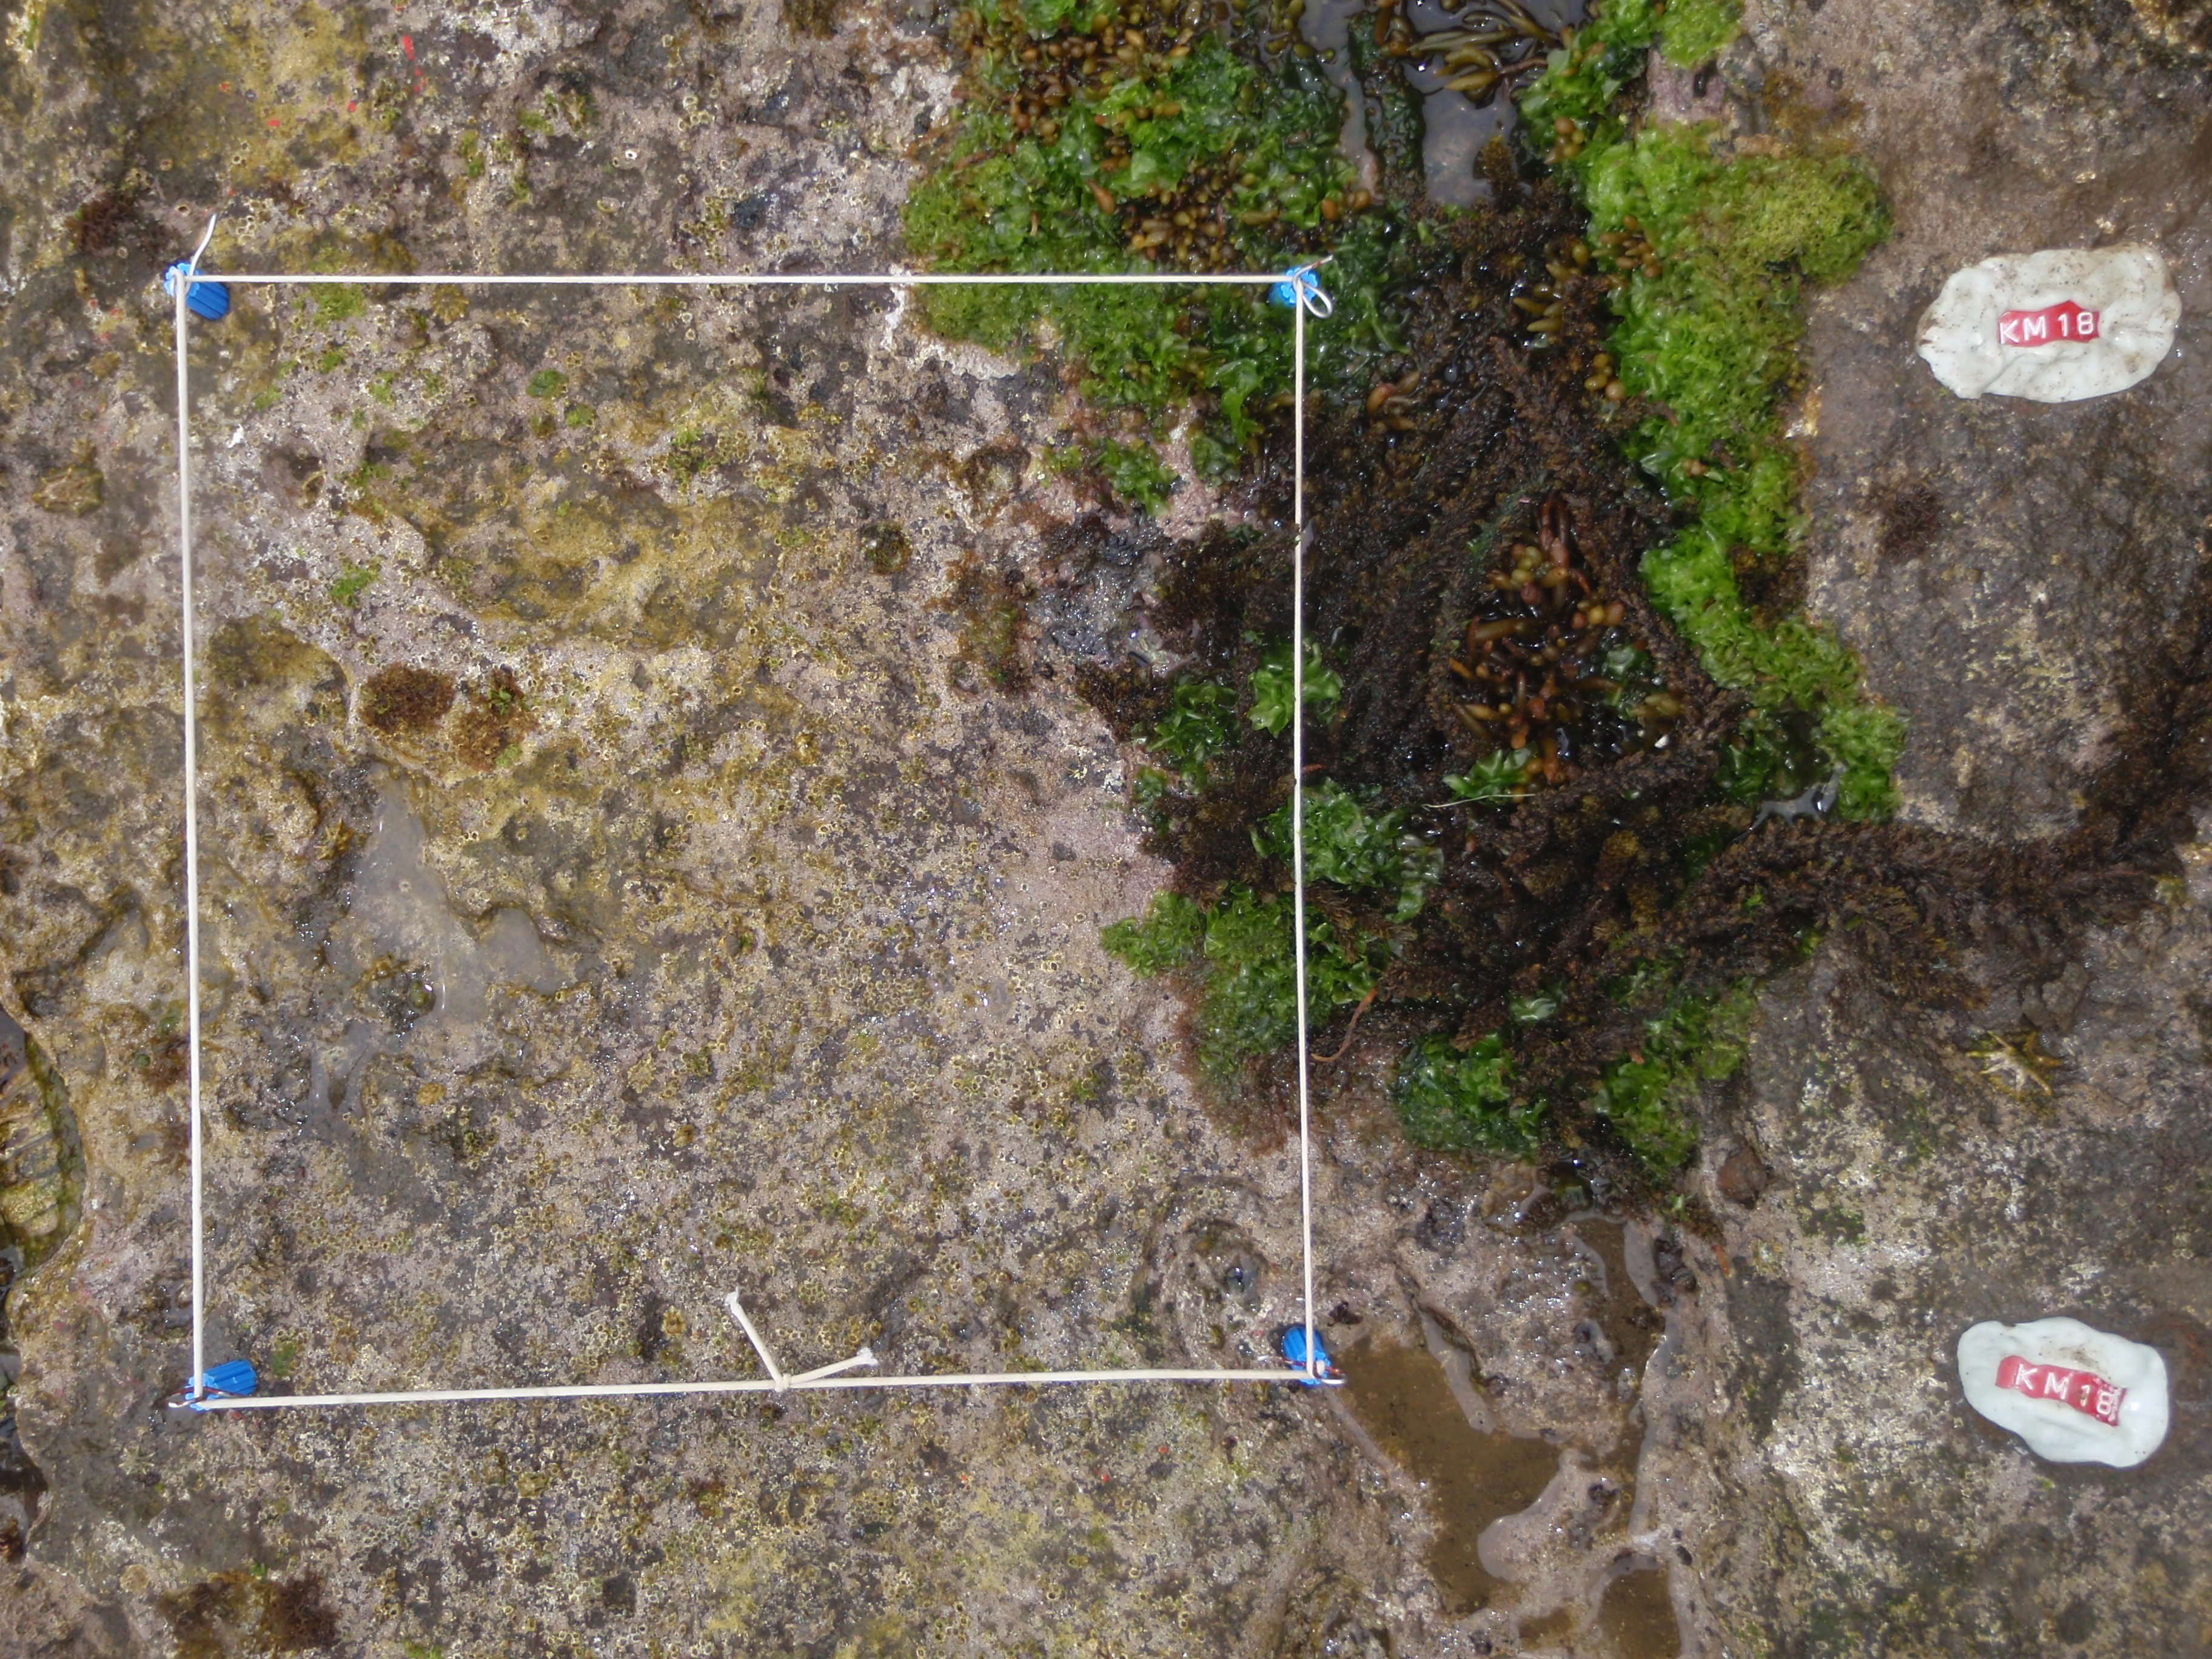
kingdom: Chromista
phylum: Ochrophyta
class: Phaeophyceae
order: Fucales
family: Sargassaceae
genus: Sargassum
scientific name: Sargassum fusiforme
